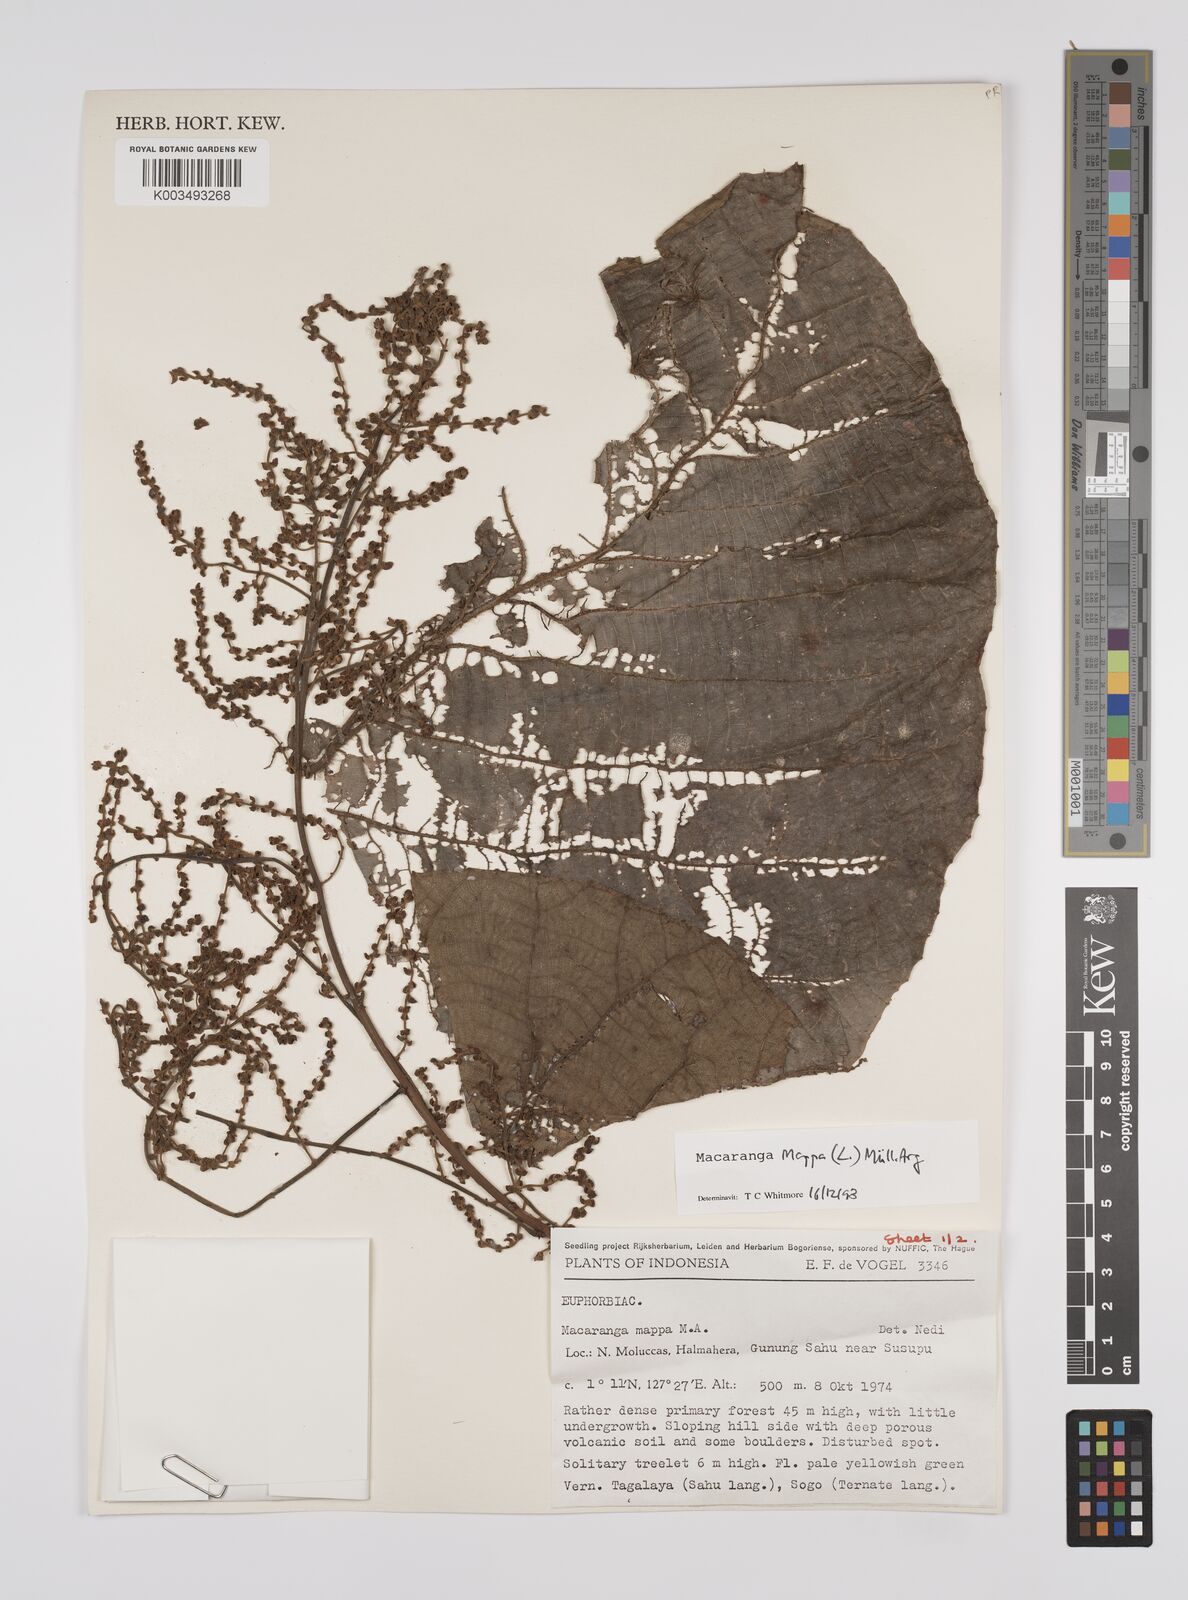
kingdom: Plantae
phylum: Tracheophyta
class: Magnoliopsida
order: Malpighiales
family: Euphorbiaceae
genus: Macaranga
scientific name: Macaranga mappa
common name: Pengua
